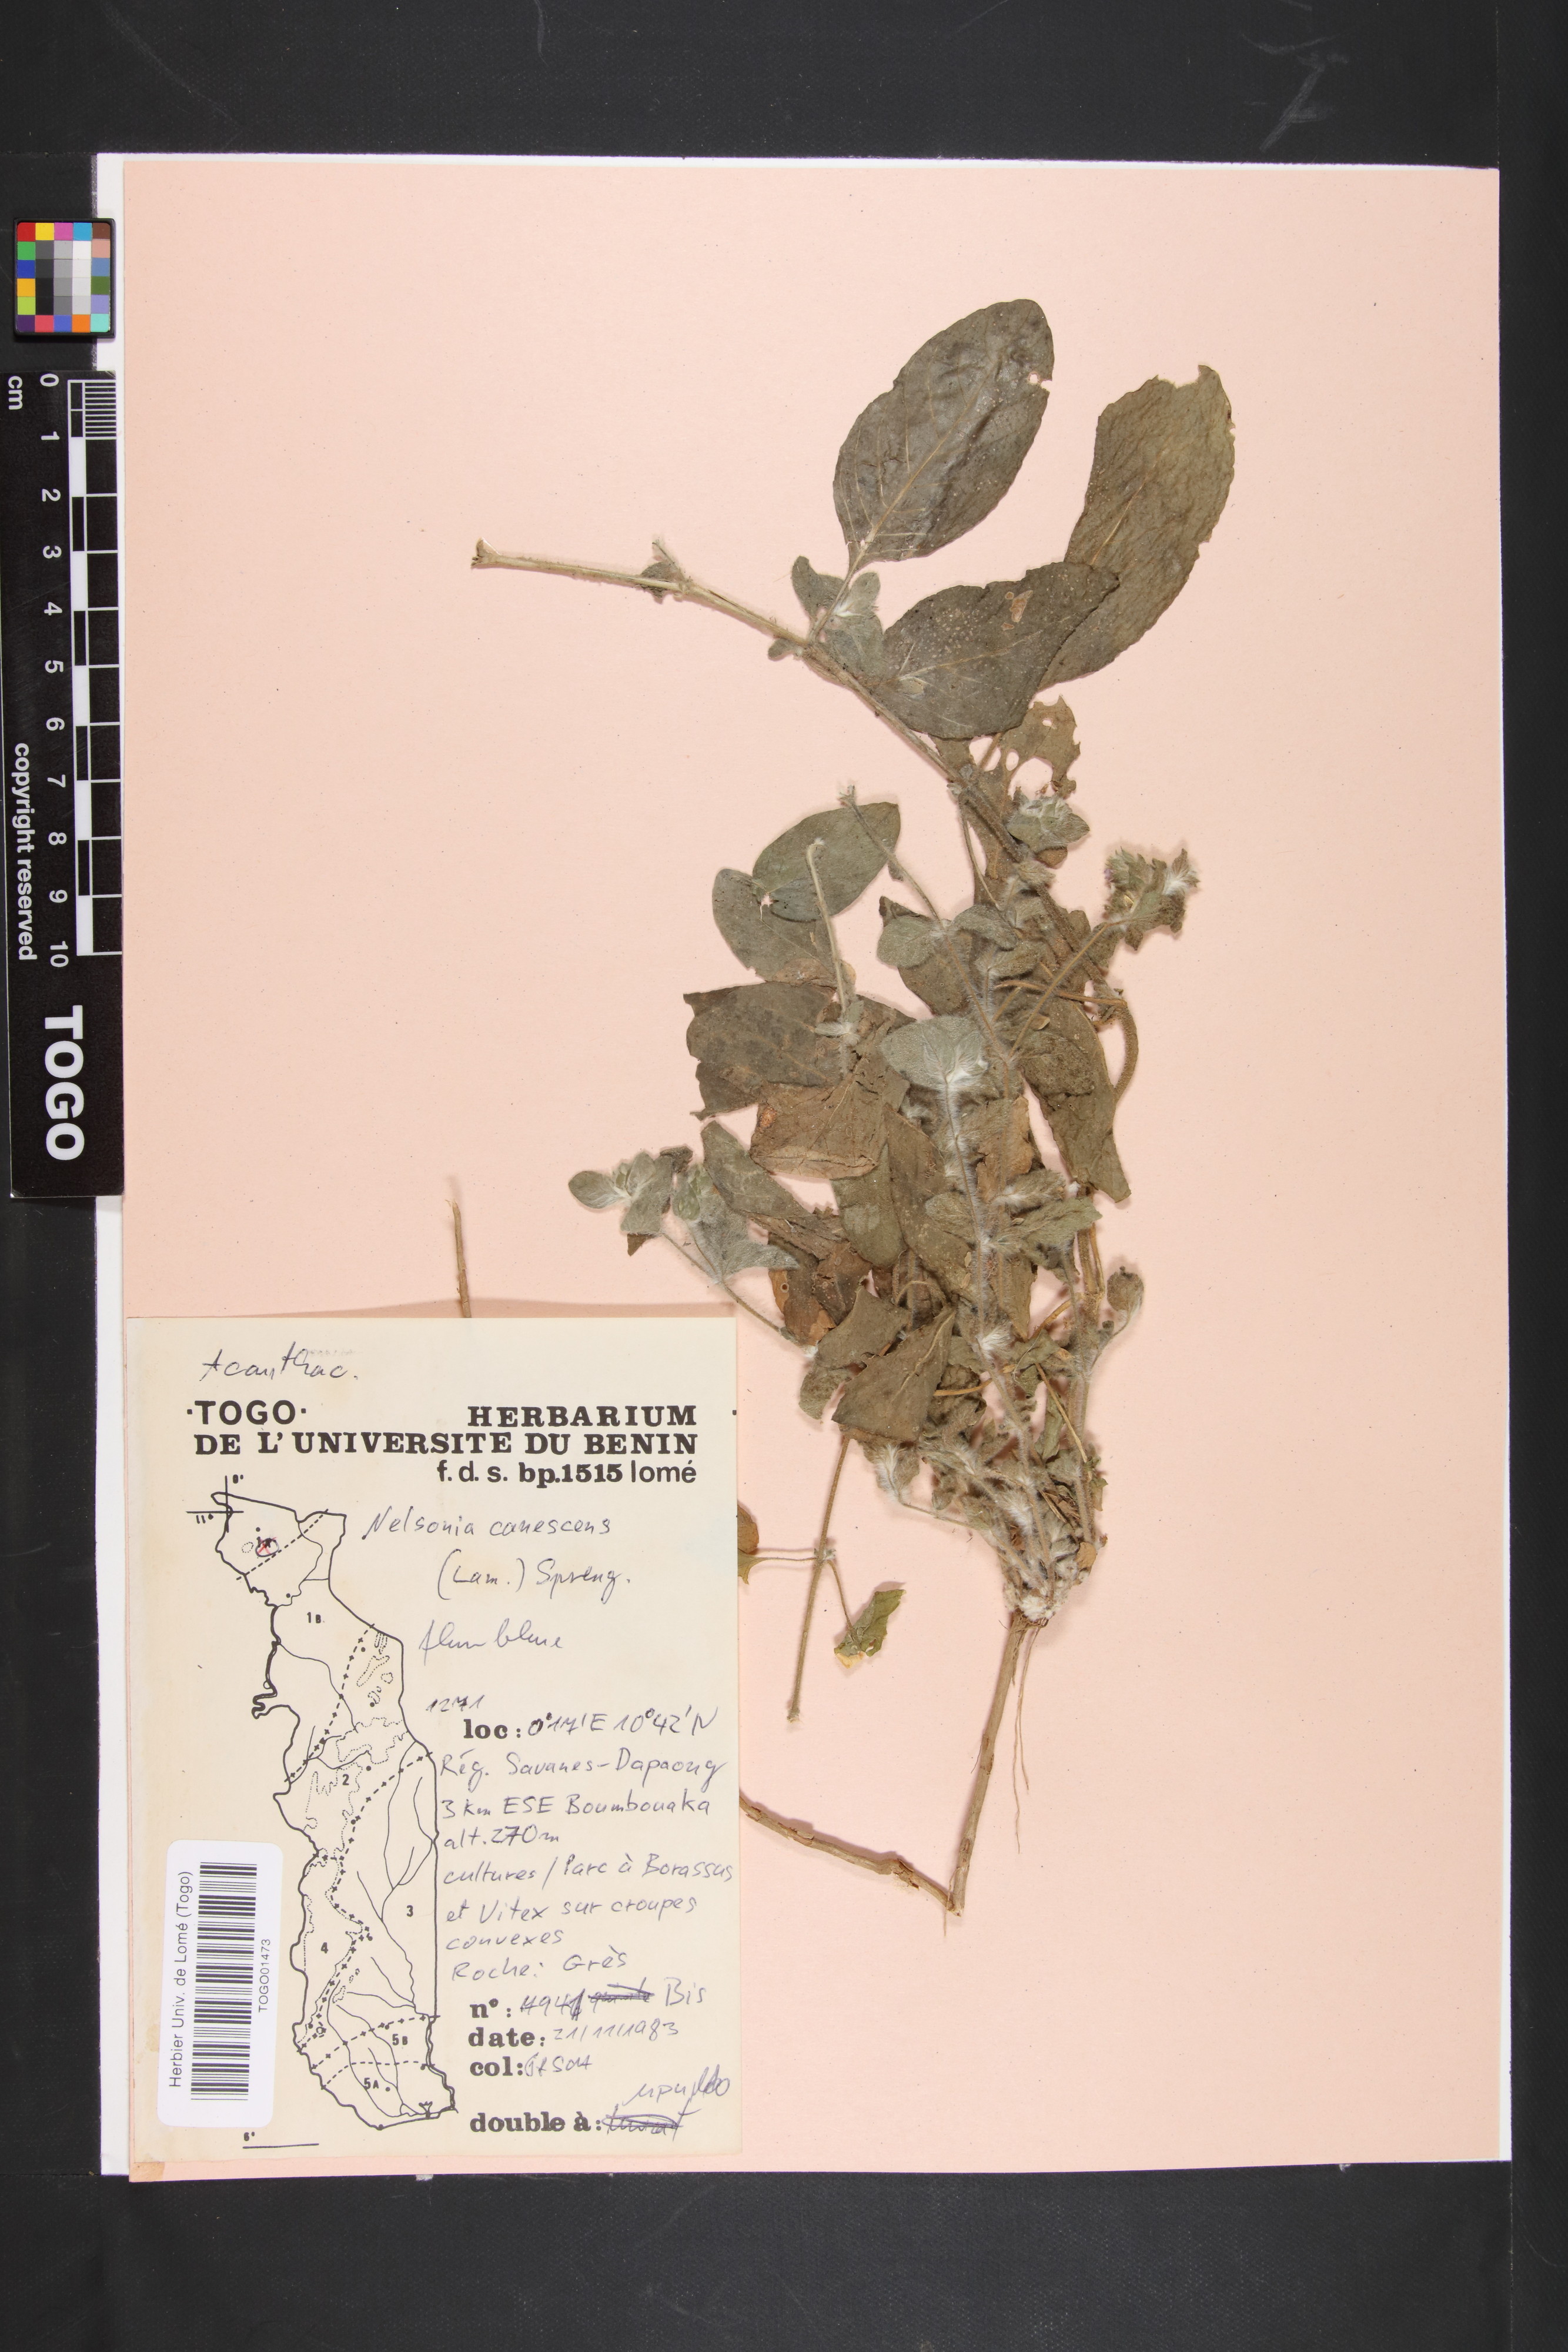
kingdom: Plantae
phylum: Tracheophyta
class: Magnoliopsida
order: Lamiales
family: Acanthaceae
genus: Nelsonia
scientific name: Nelsonia canescens
